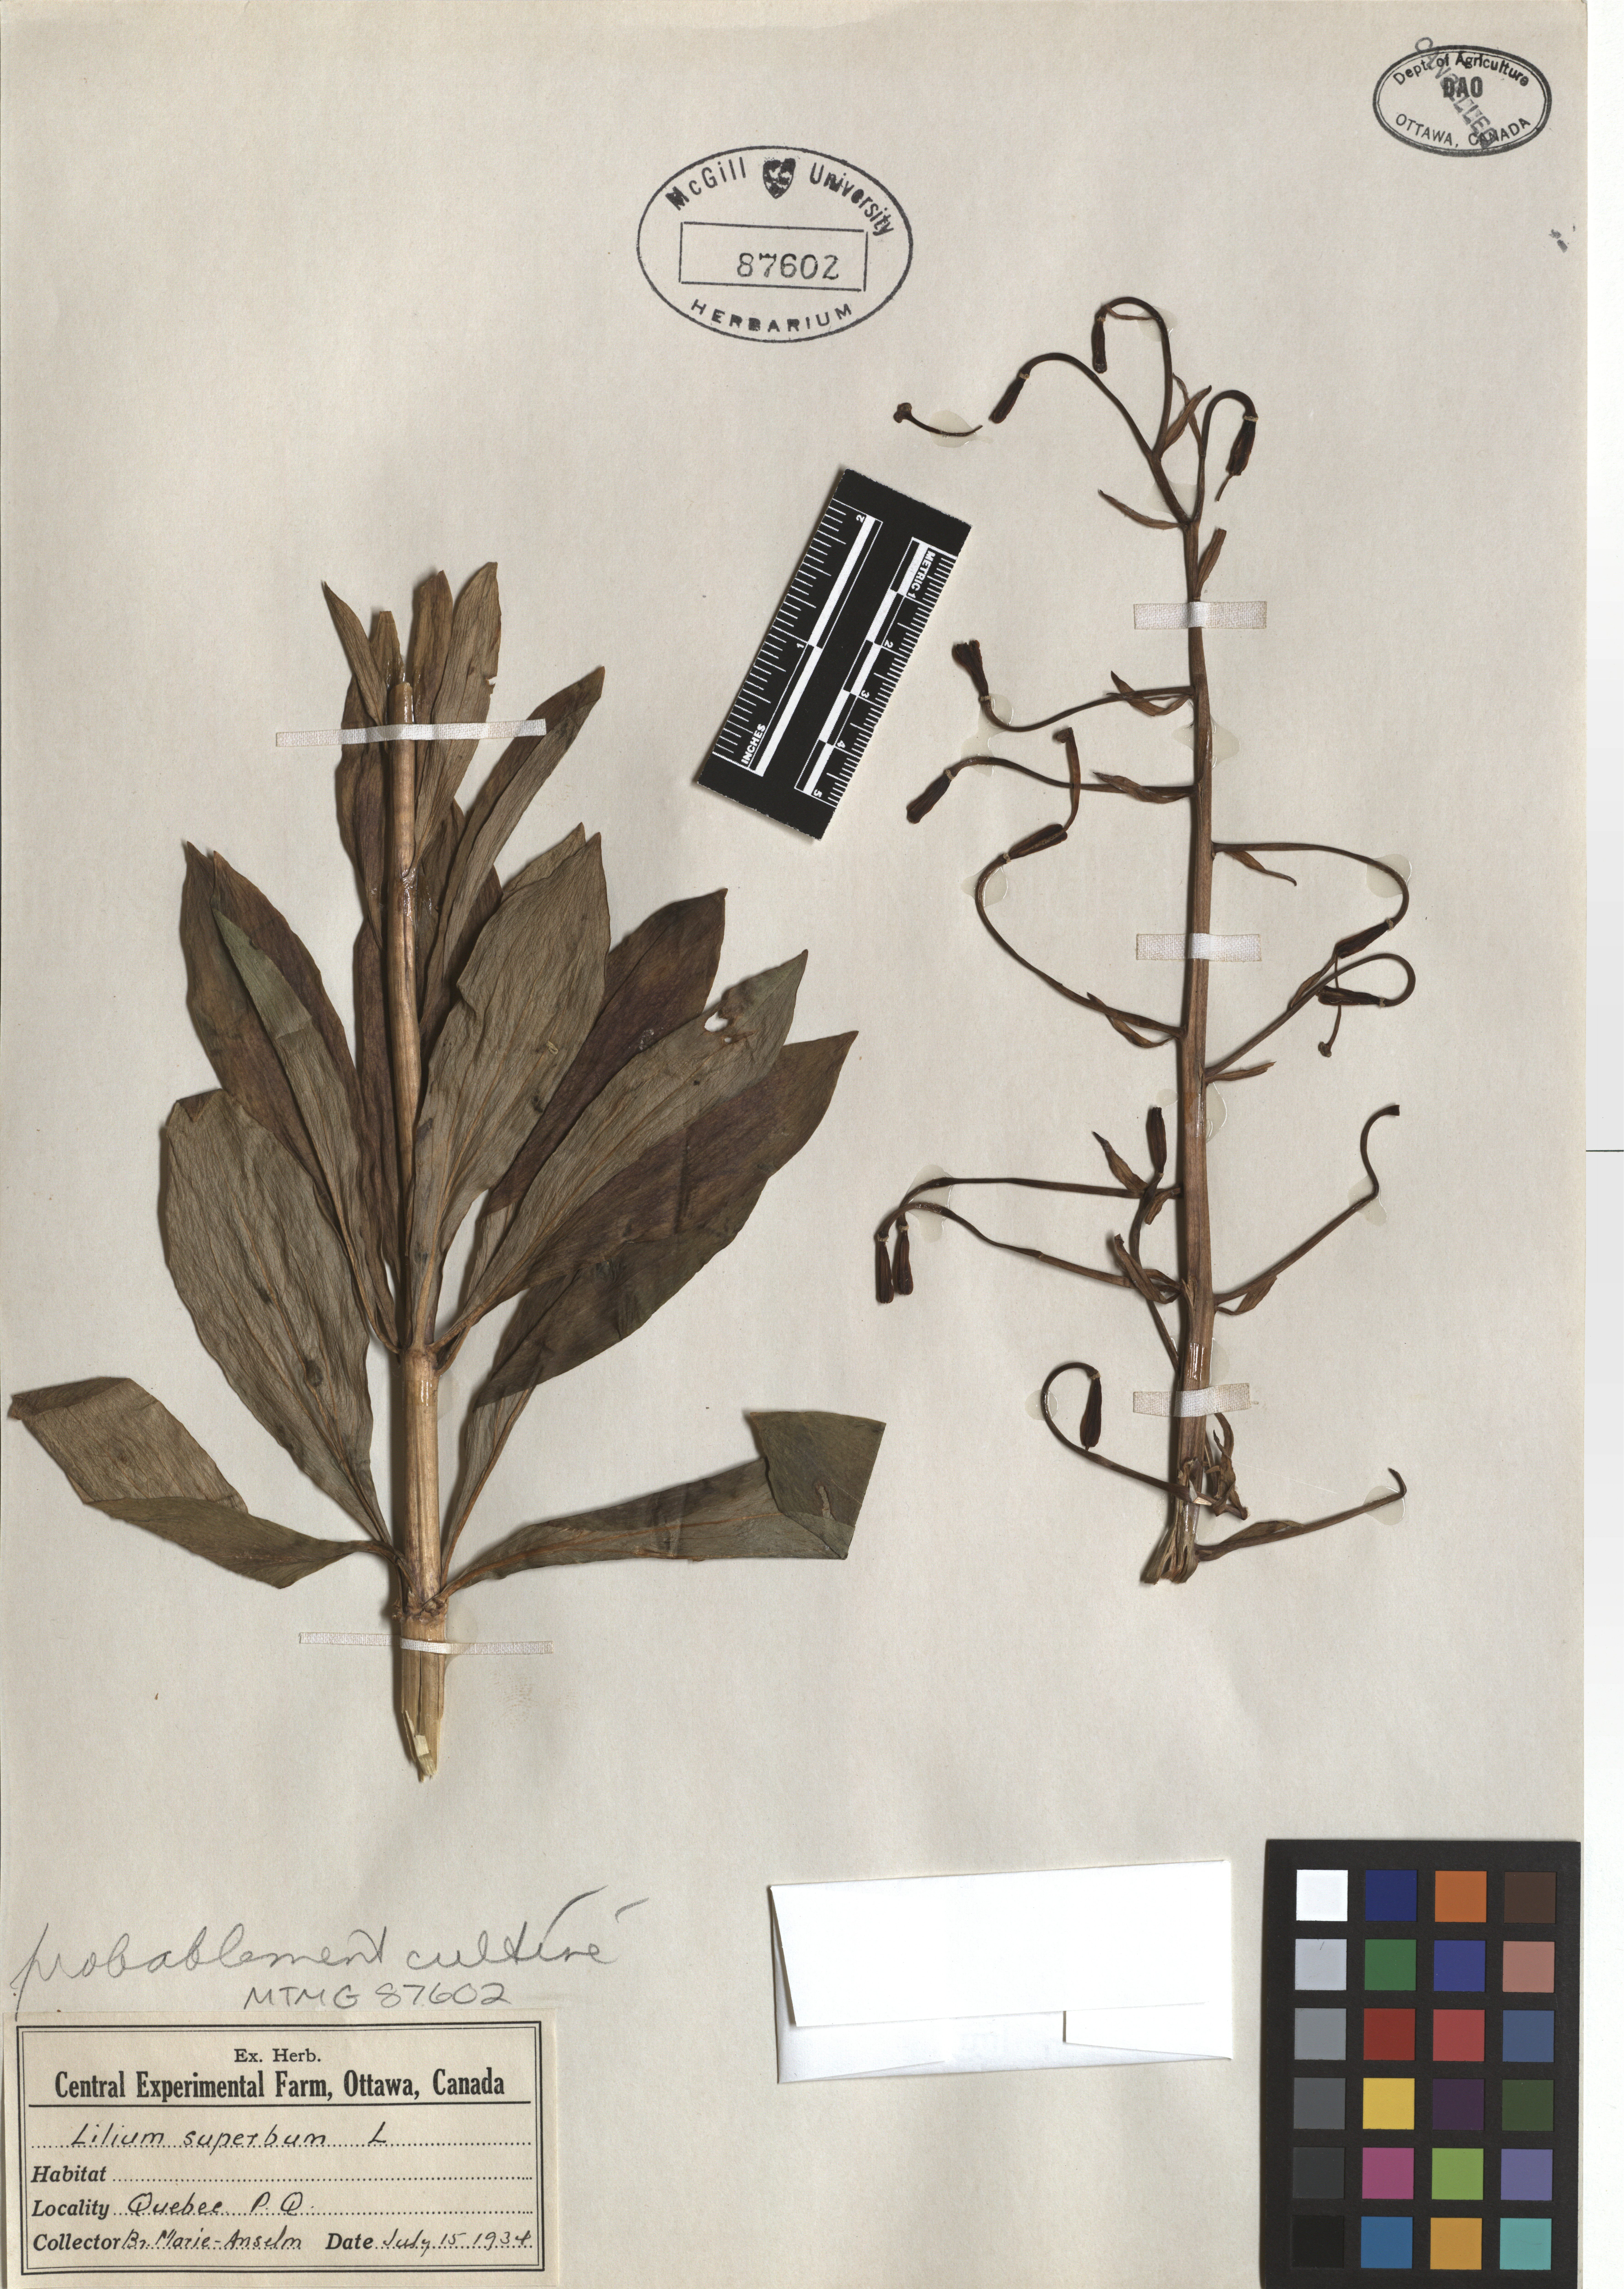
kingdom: Plantae
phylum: Tracheophyta
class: Liliopsida
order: Liliales
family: Liliaceae
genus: Lilium
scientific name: Lilium superbum
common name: American turk's-cap lily
